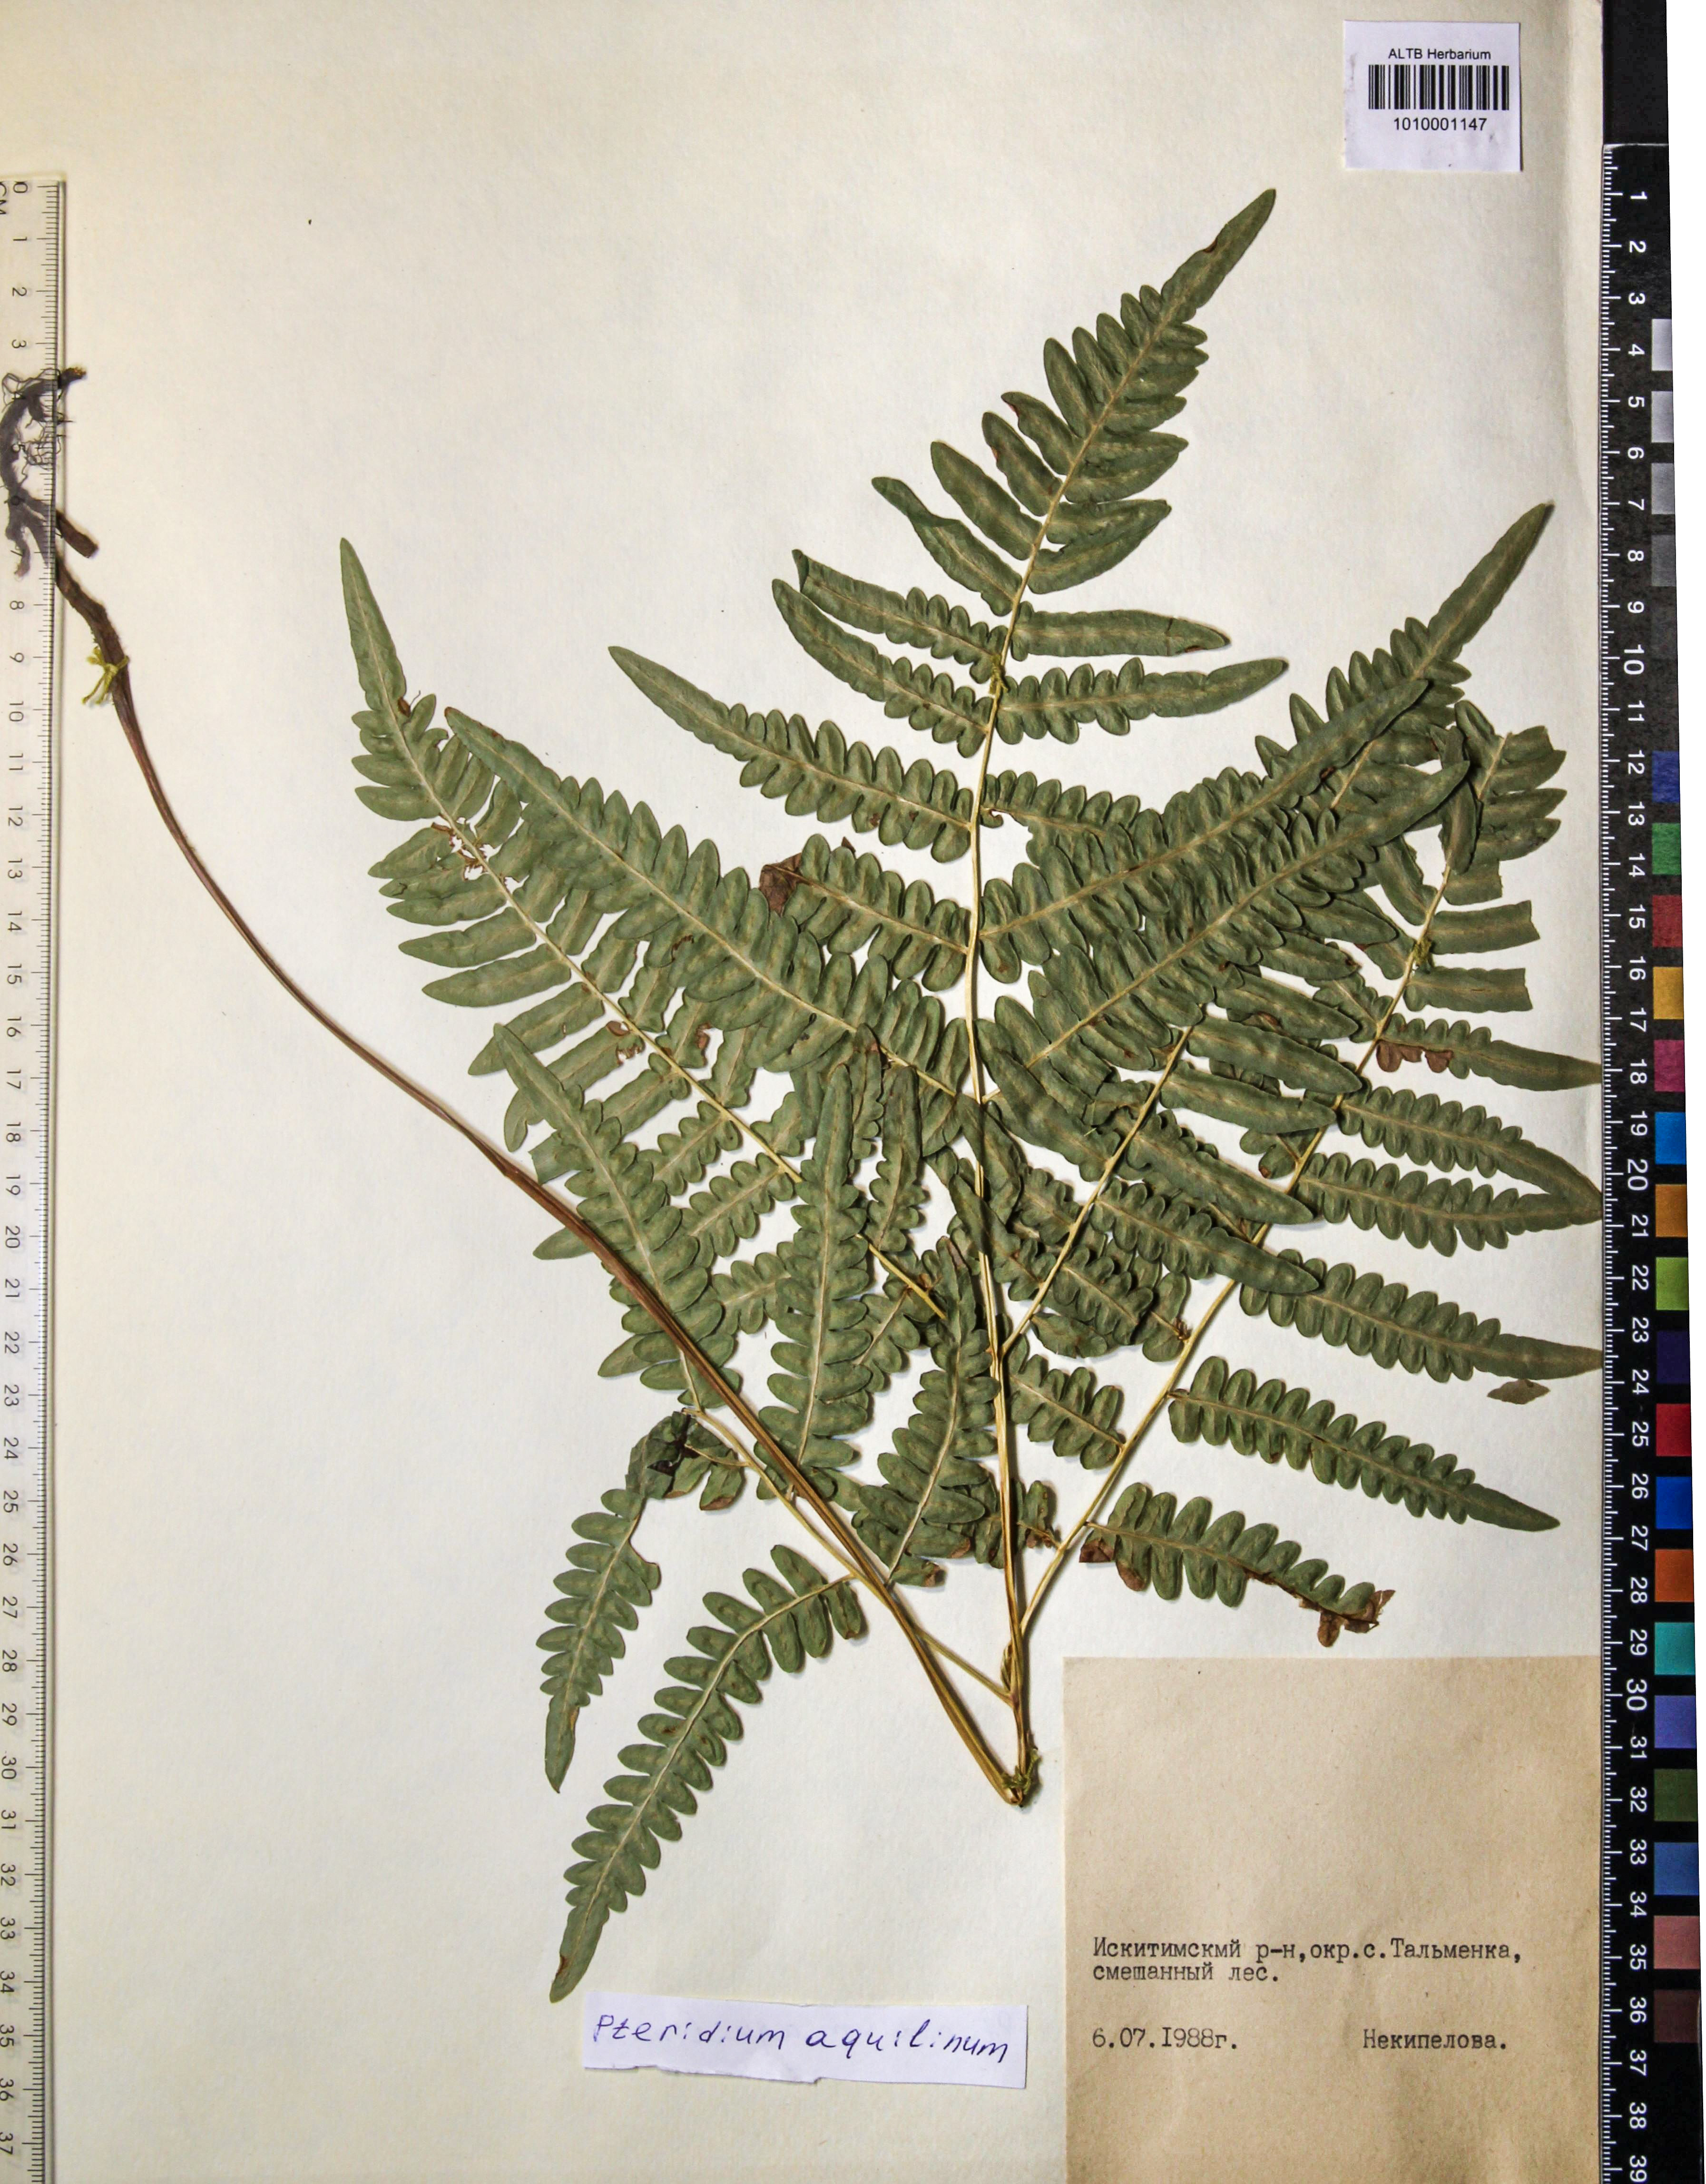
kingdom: Plantae
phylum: Tracheophyta
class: Polypodiopsida
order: Polypodiales
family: Dennstaedtiaceae
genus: Pteridium
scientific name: Pteridium aquilinum
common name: Bracken
